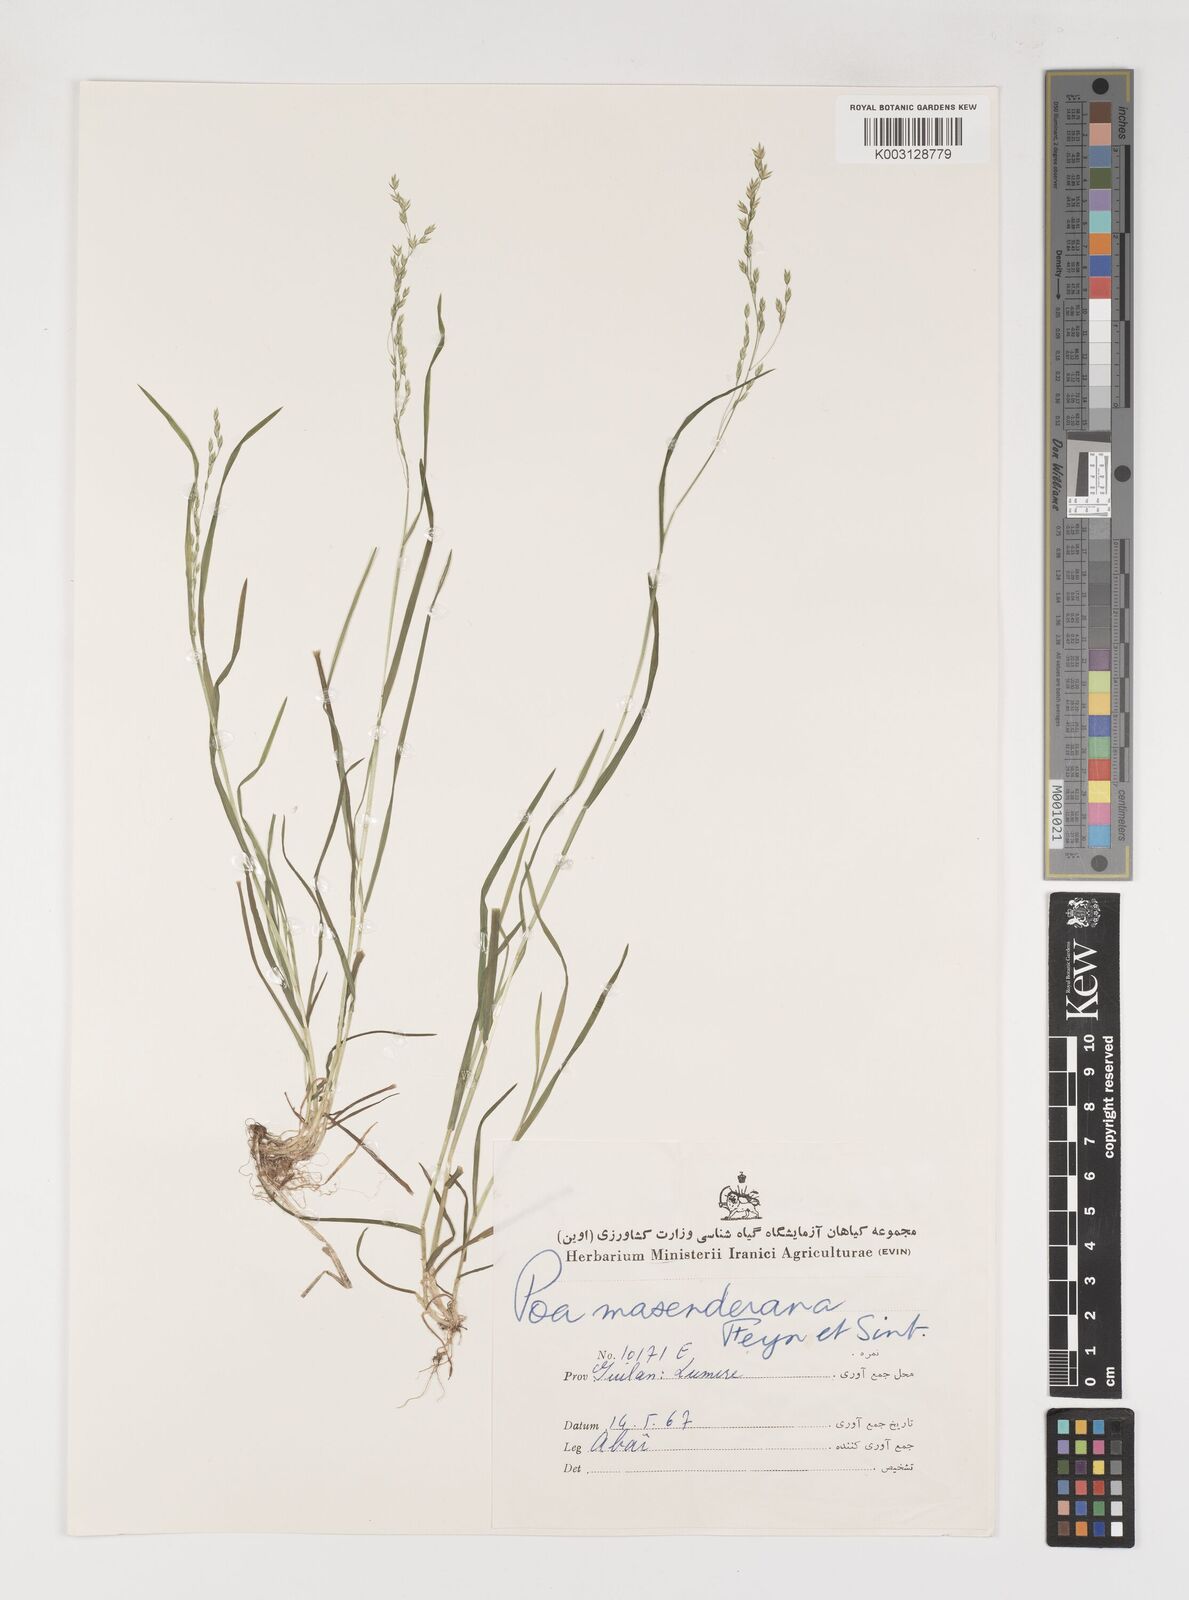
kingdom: Plantae
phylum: Tracheophyta
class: Liliopsida
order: Poales
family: Poaceae
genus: Poa
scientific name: Poa masenderana
